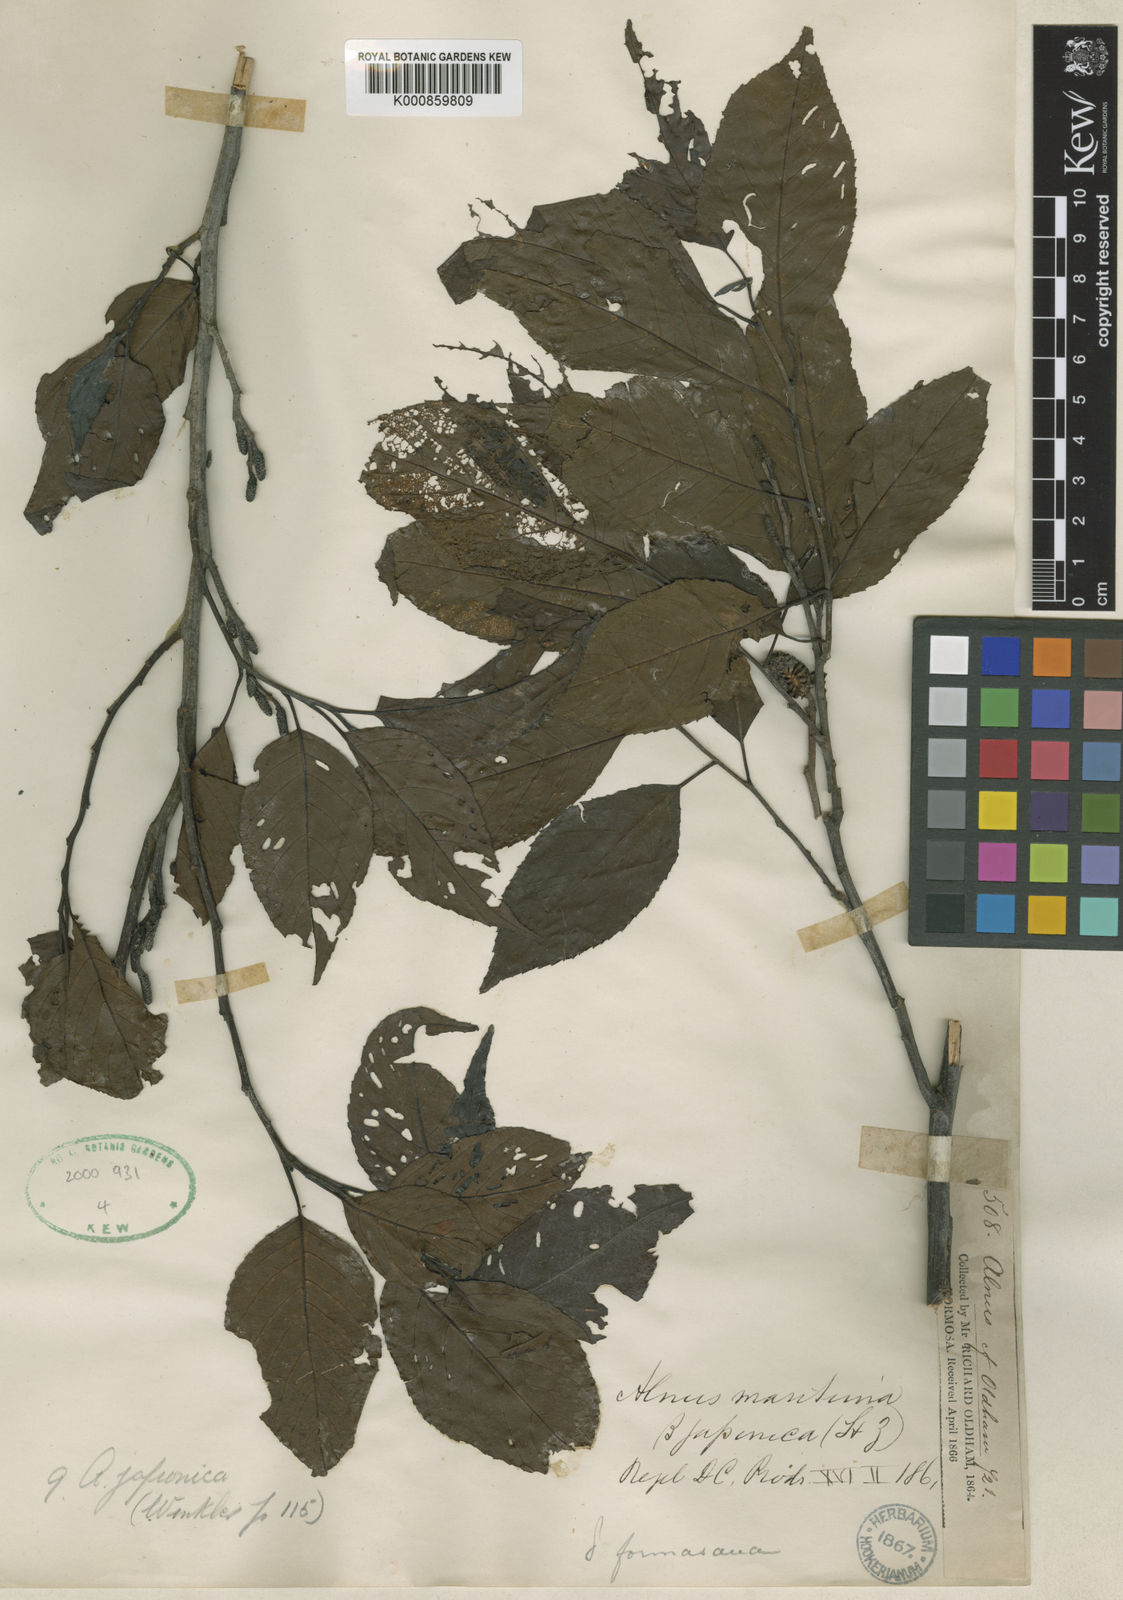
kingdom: Plantae
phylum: Tracheophyta
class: Magnoliopsida
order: Fagales
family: Betulaceae
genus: Alnus
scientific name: Alnus formosana
